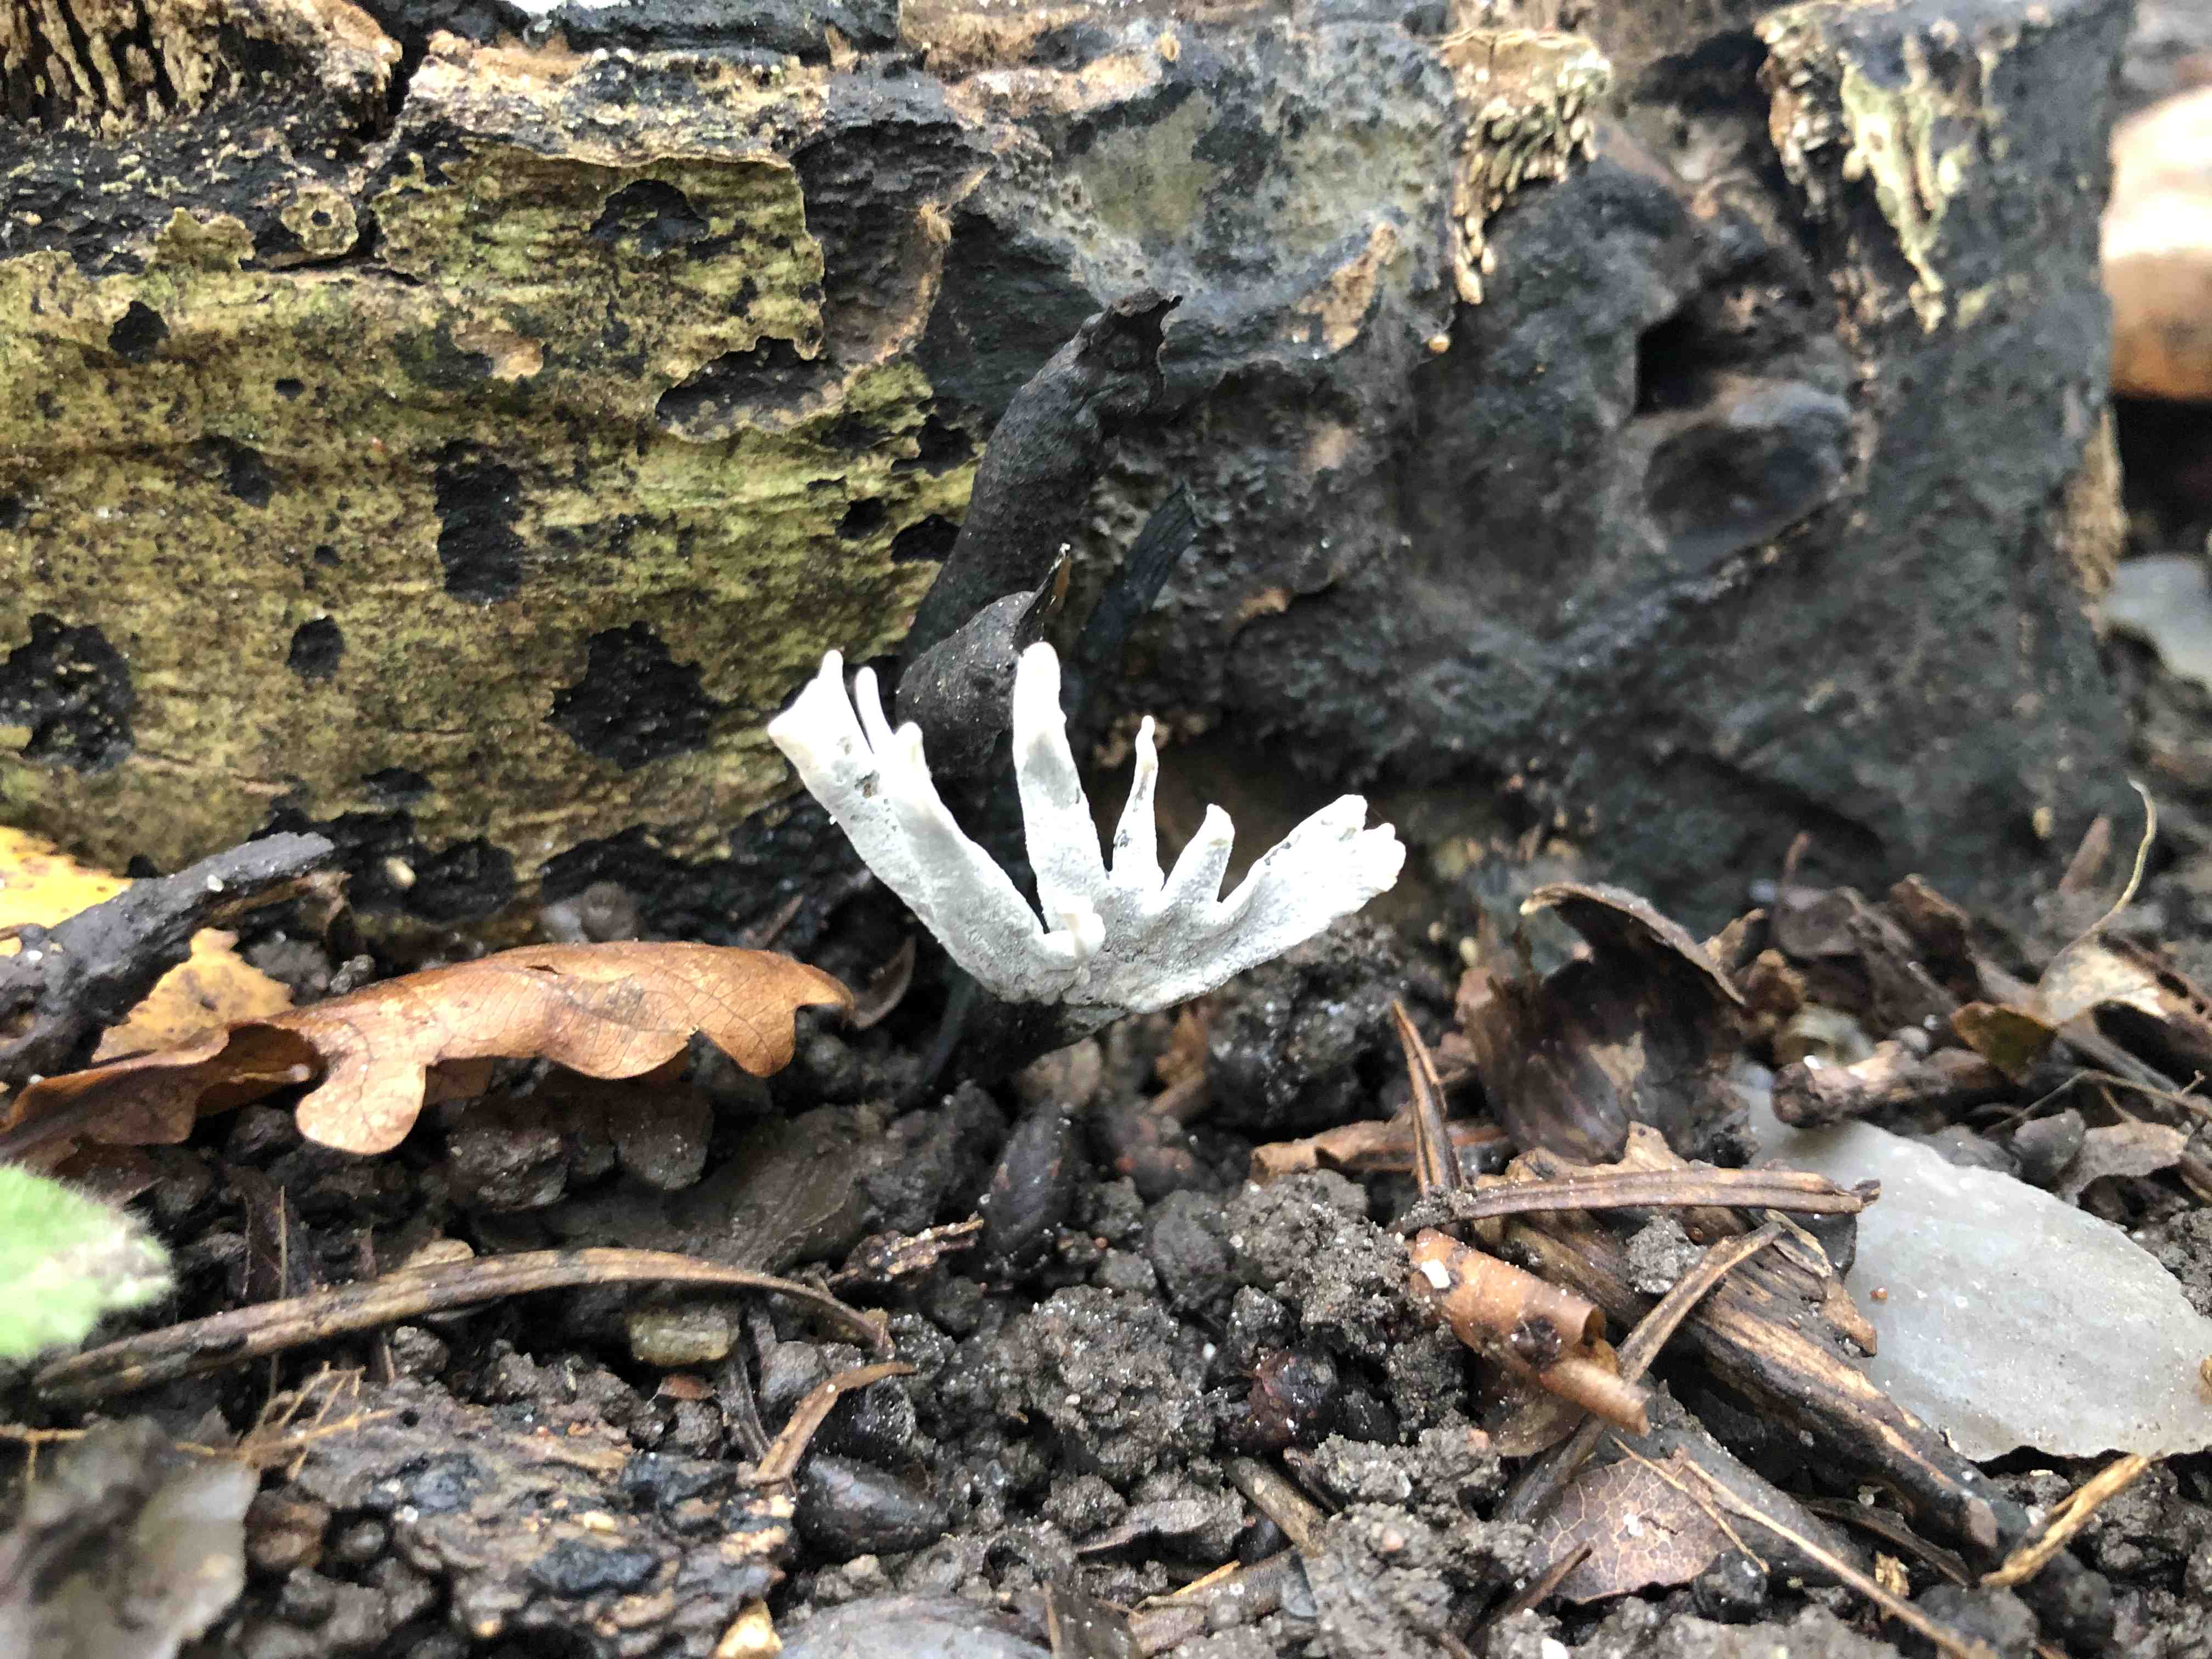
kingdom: Fungi
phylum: Ascomycota
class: Sordariomycetes
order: Xylariales
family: Xylariaceae
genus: Xylaria
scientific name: Xylaria hypoxylon
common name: grenet stødsvamp
